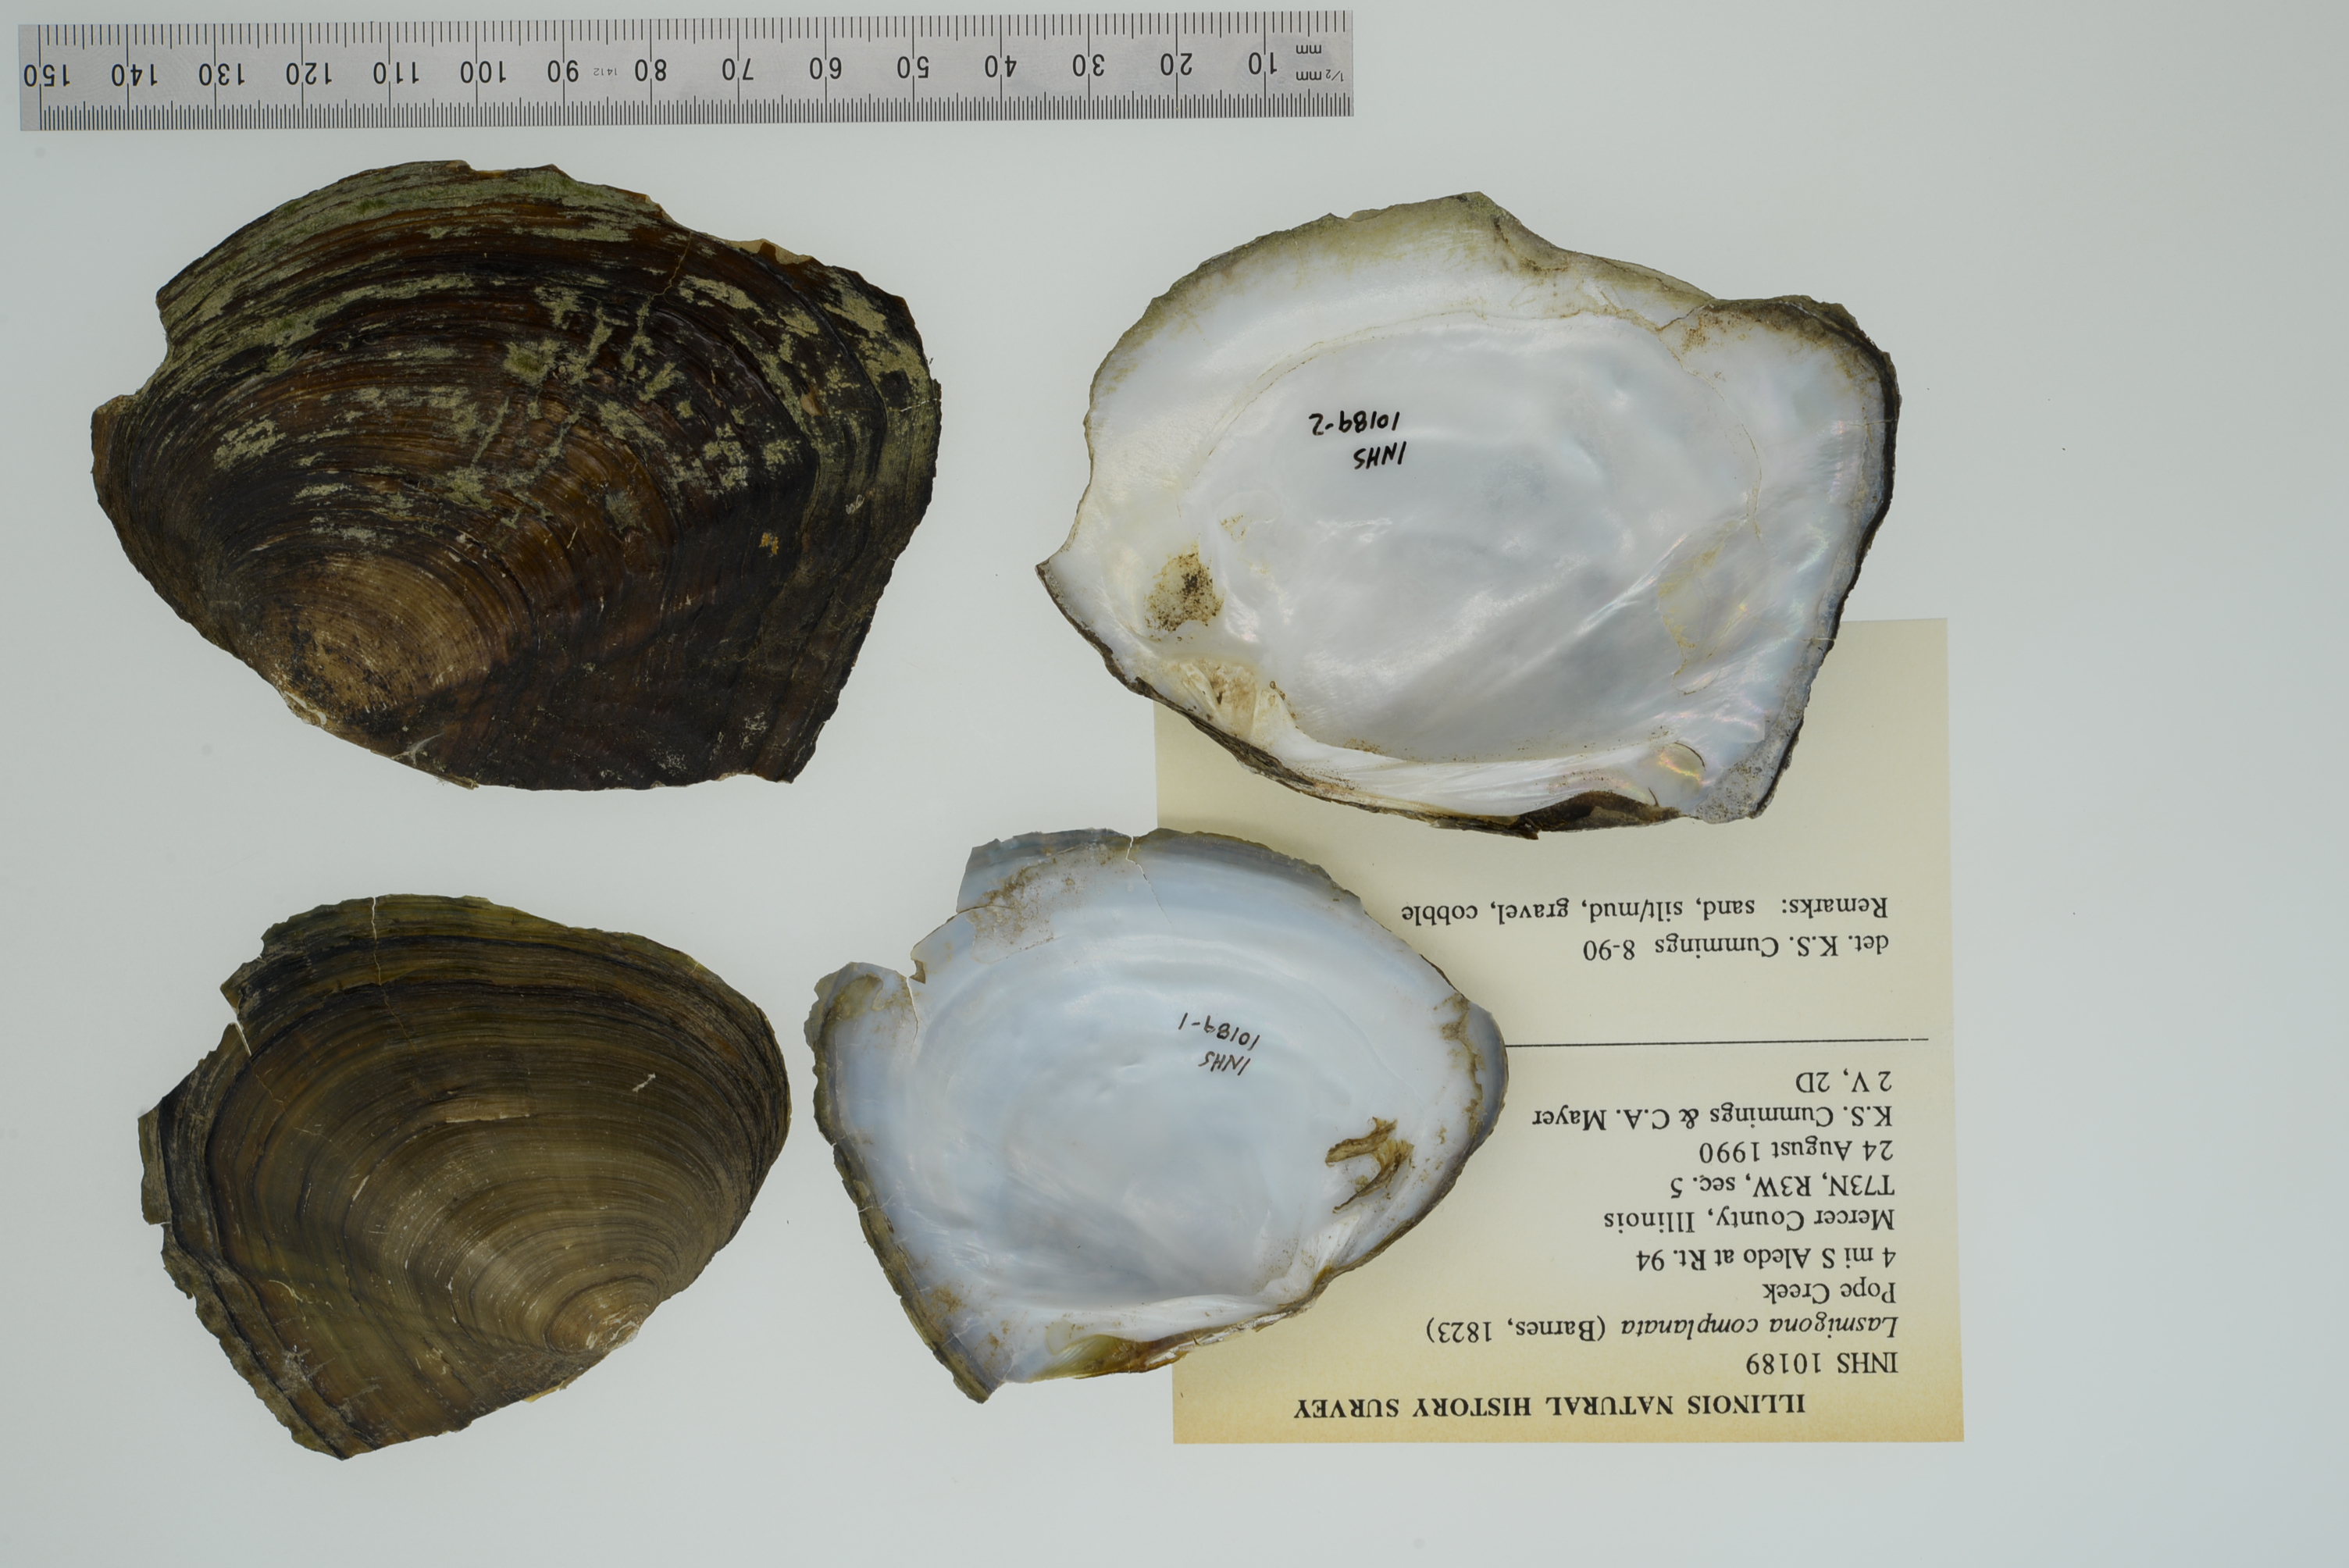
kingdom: Animalia
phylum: Mollusca
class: Bivalvia
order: Unionida
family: Unionidae
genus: Lasmigona
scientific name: Lasmigona complanata
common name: White heelsplitter
